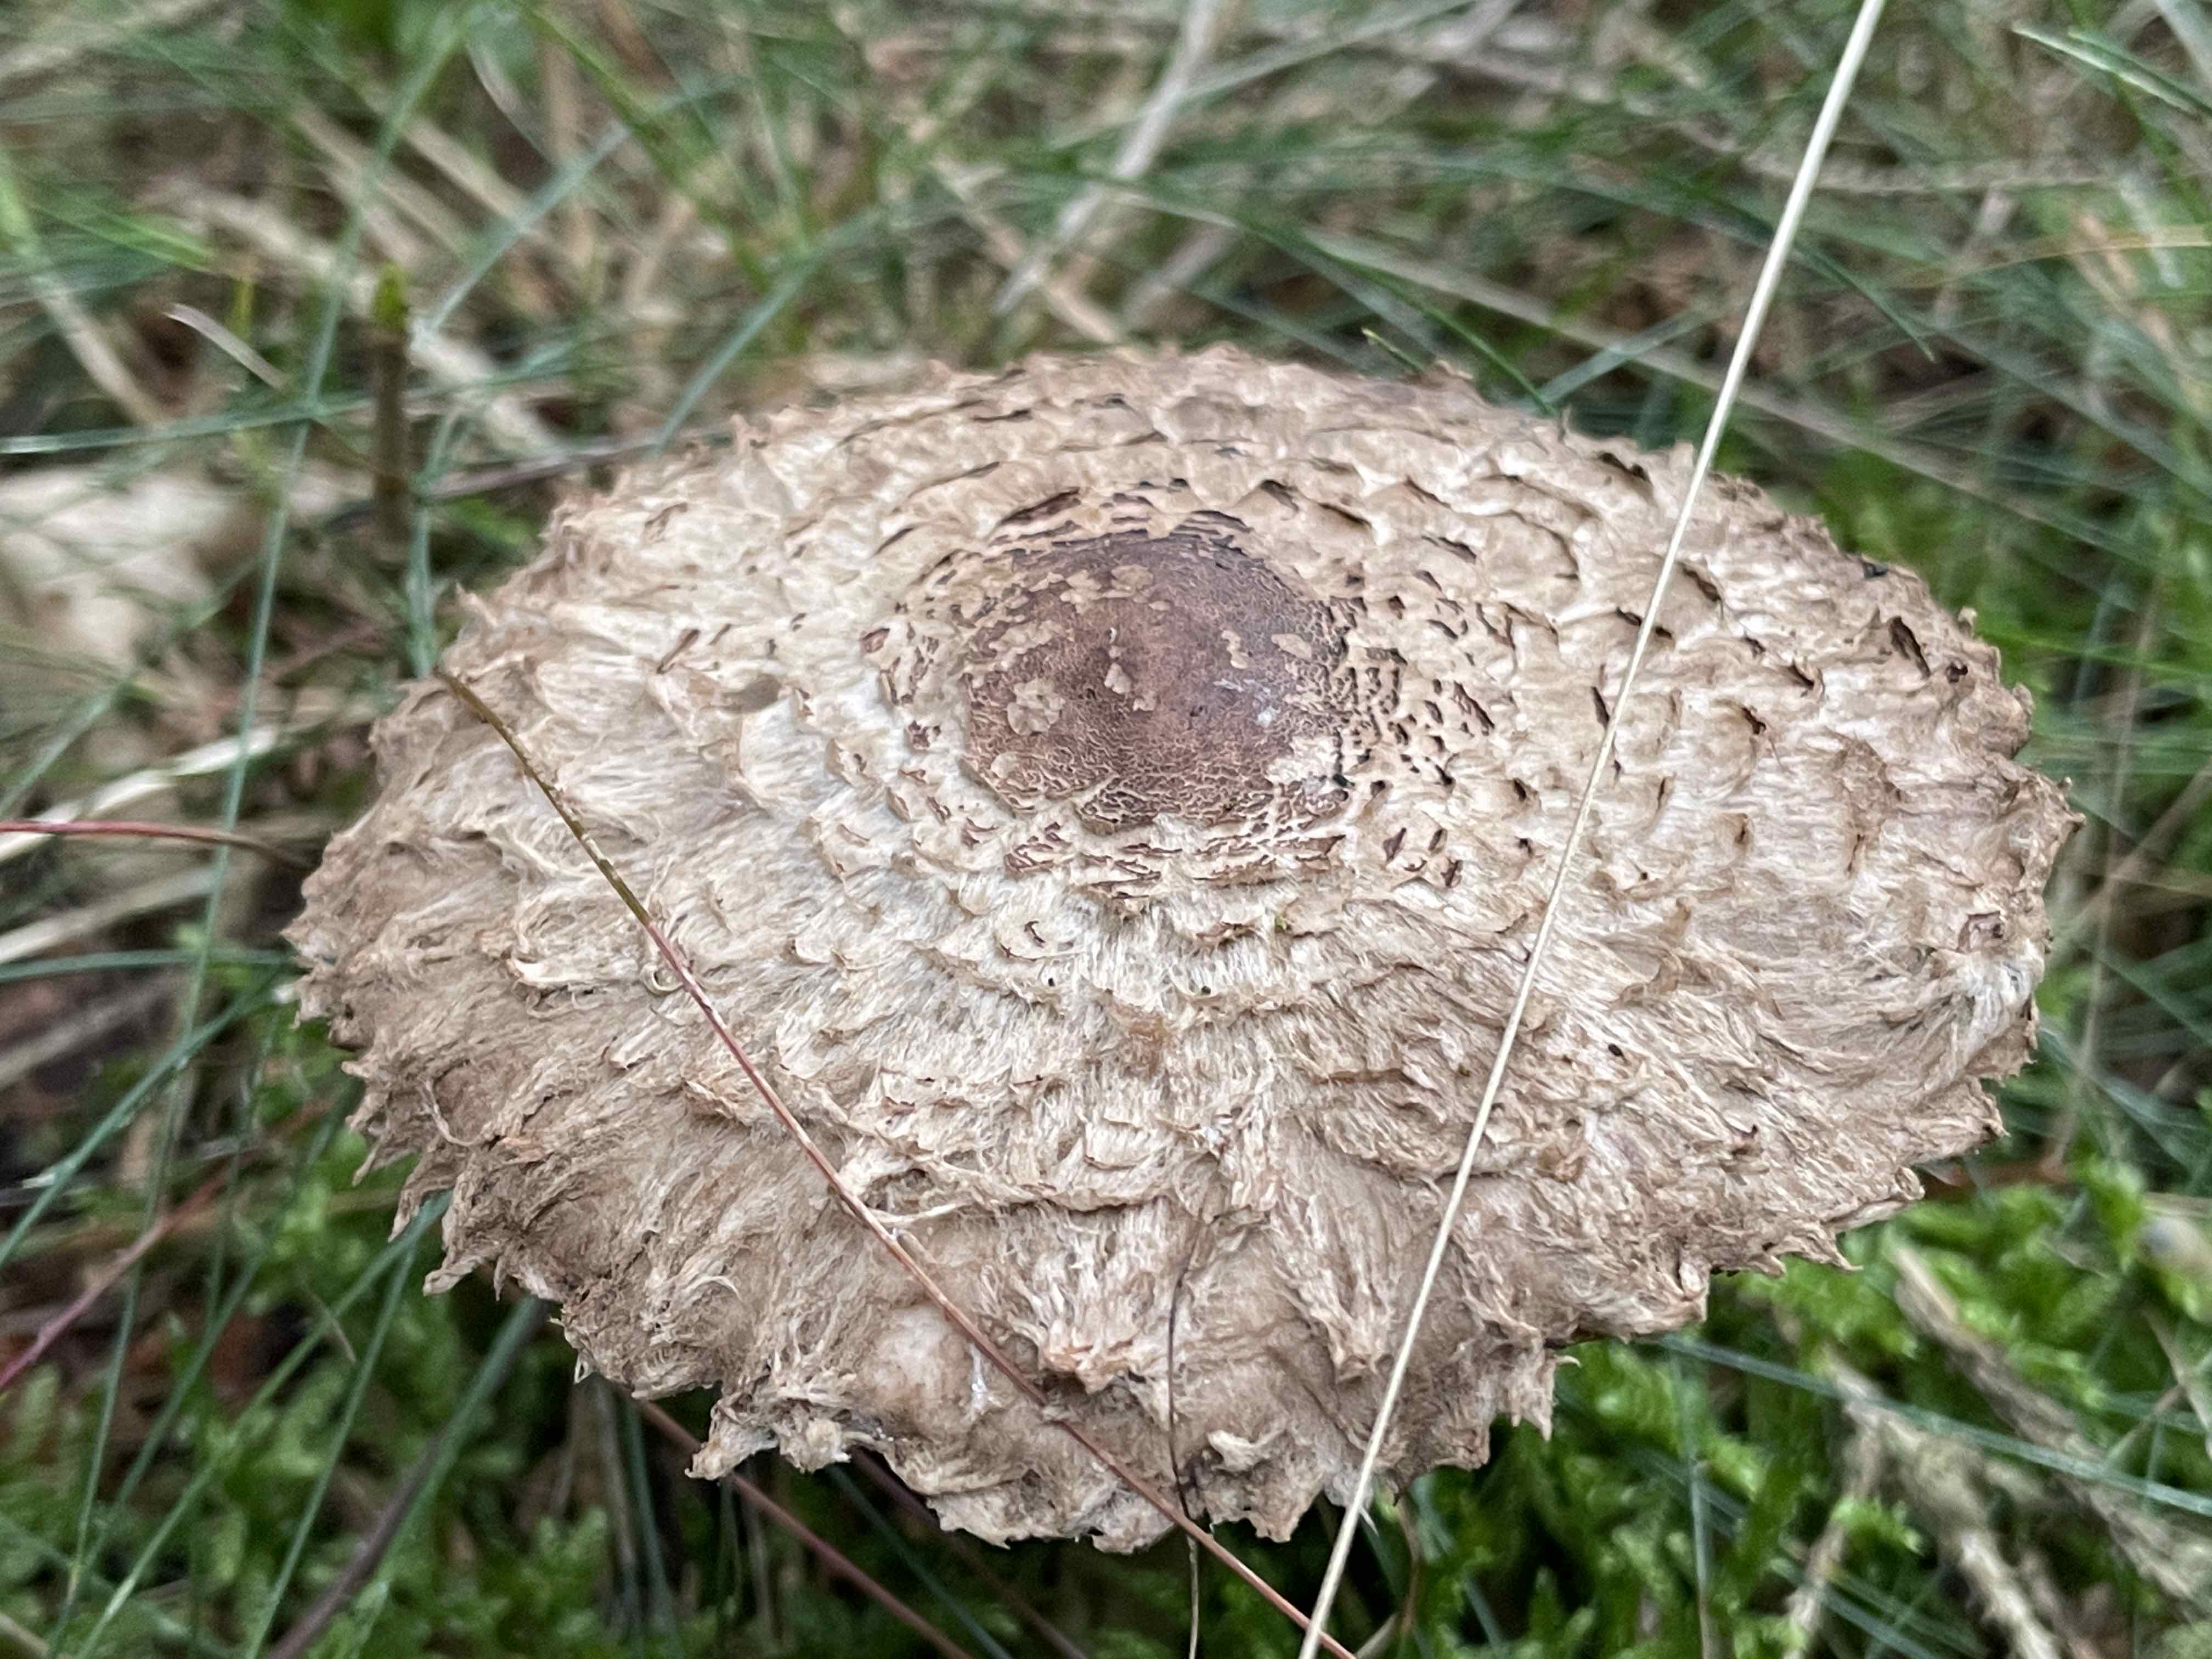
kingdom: Fungi
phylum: Basidiomycota
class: Agaricomycetes
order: Agaricales
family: Agaricaceae
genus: Chlorophyllum
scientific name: Chlorophyllum olivieri
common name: almindelig rabarberhat
